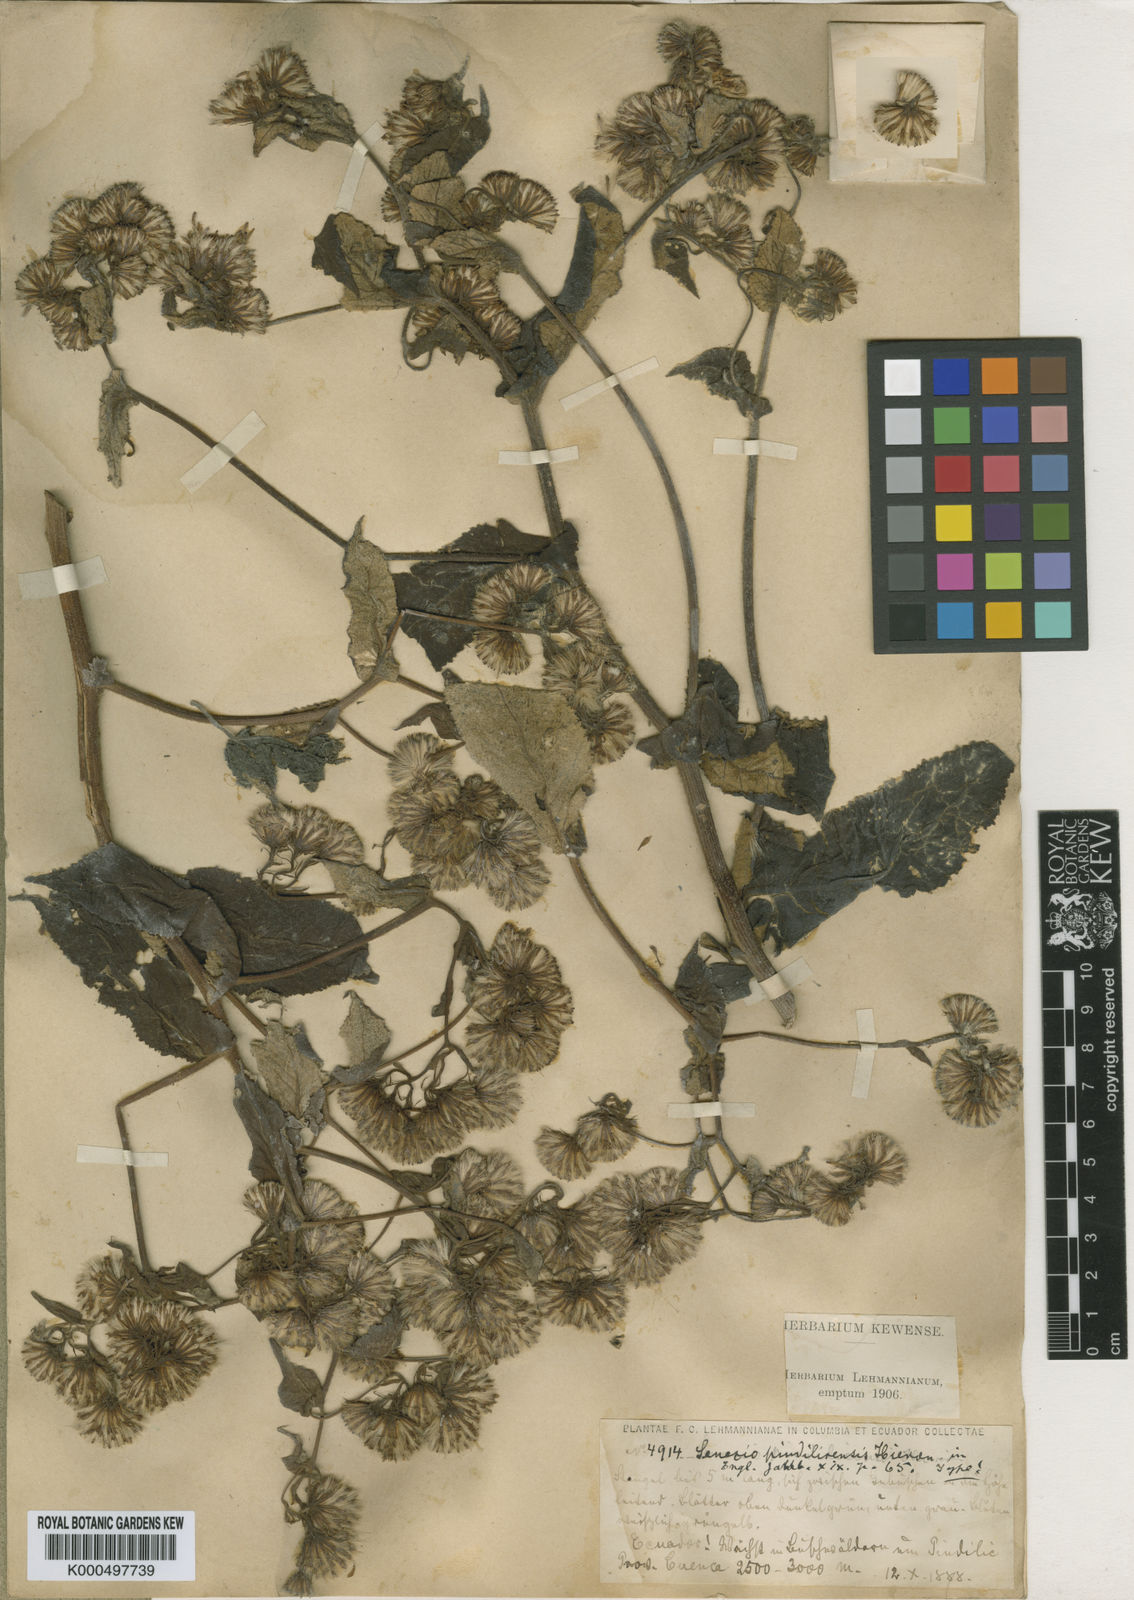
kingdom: Plantae
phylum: Tracheophyta
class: Magnoliopsida
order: Asterales
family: Asteraceae
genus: Aetheolaena
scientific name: Aetheolaena heterophylla
